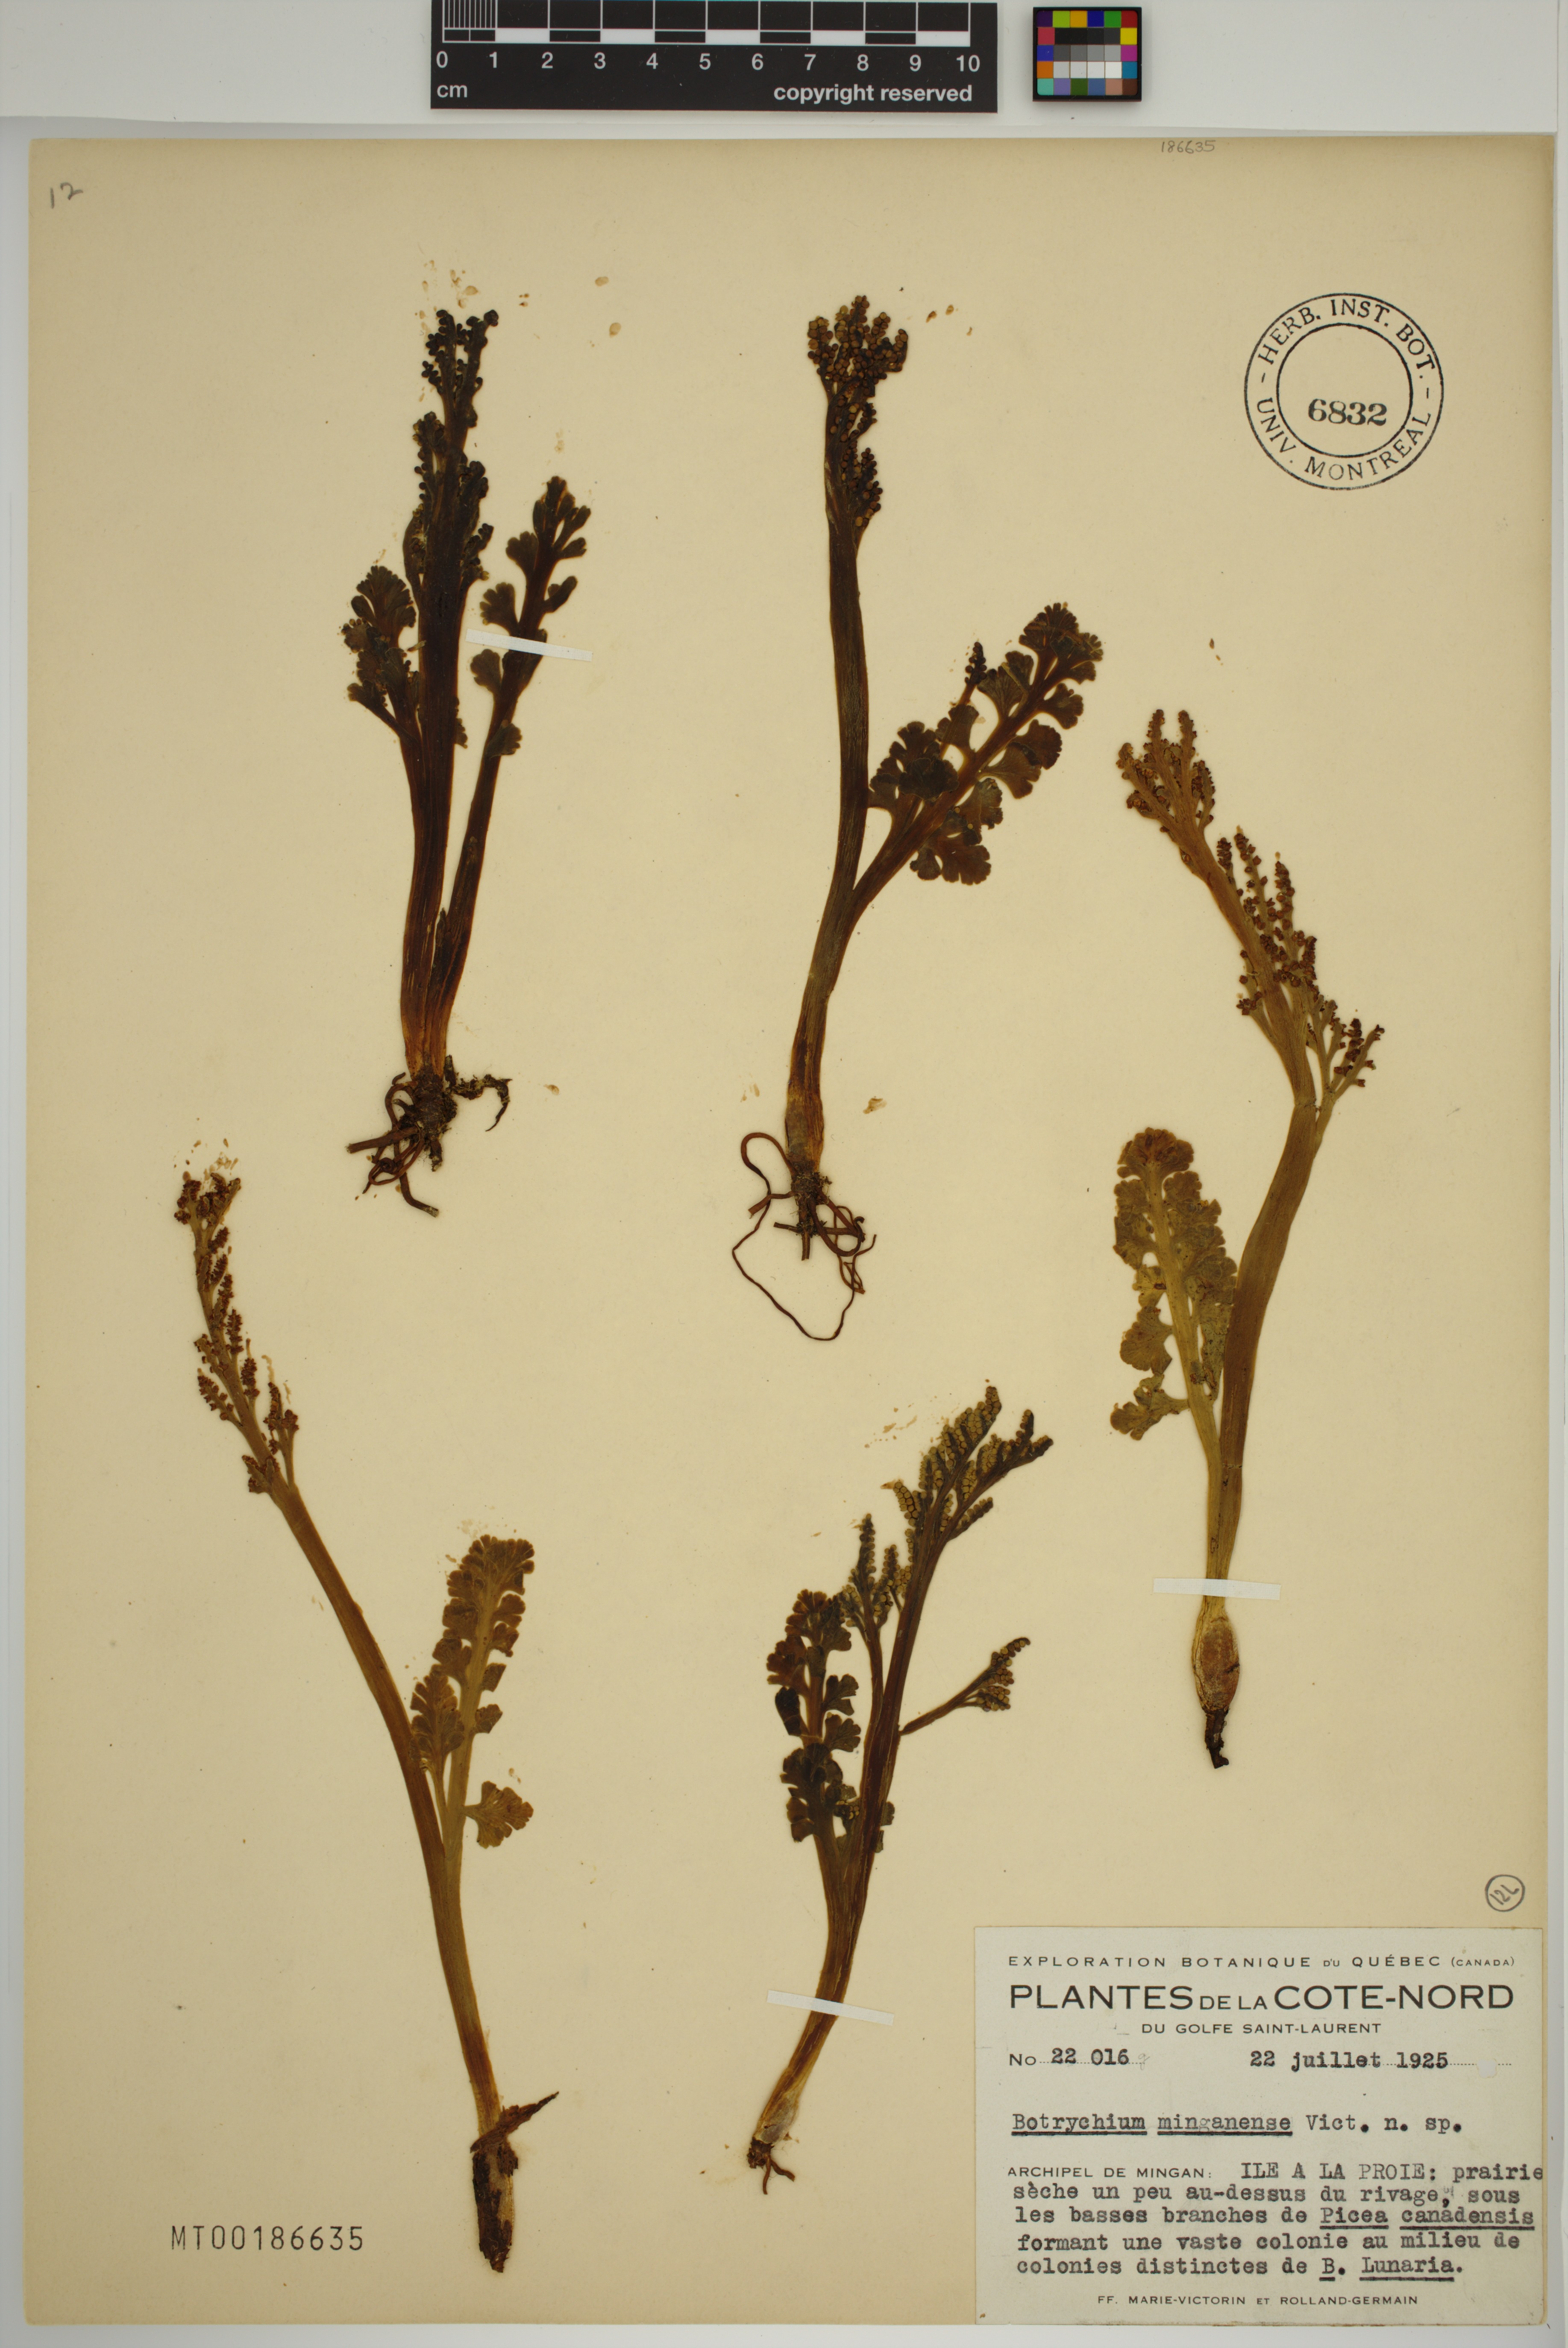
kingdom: Plantae
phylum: Tracheophyta
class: Polypodiopsida
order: Ophioglossales
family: Ophioglossaceae
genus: Botrychium
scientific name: Botrychium minganense
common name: Mingan grapefern
